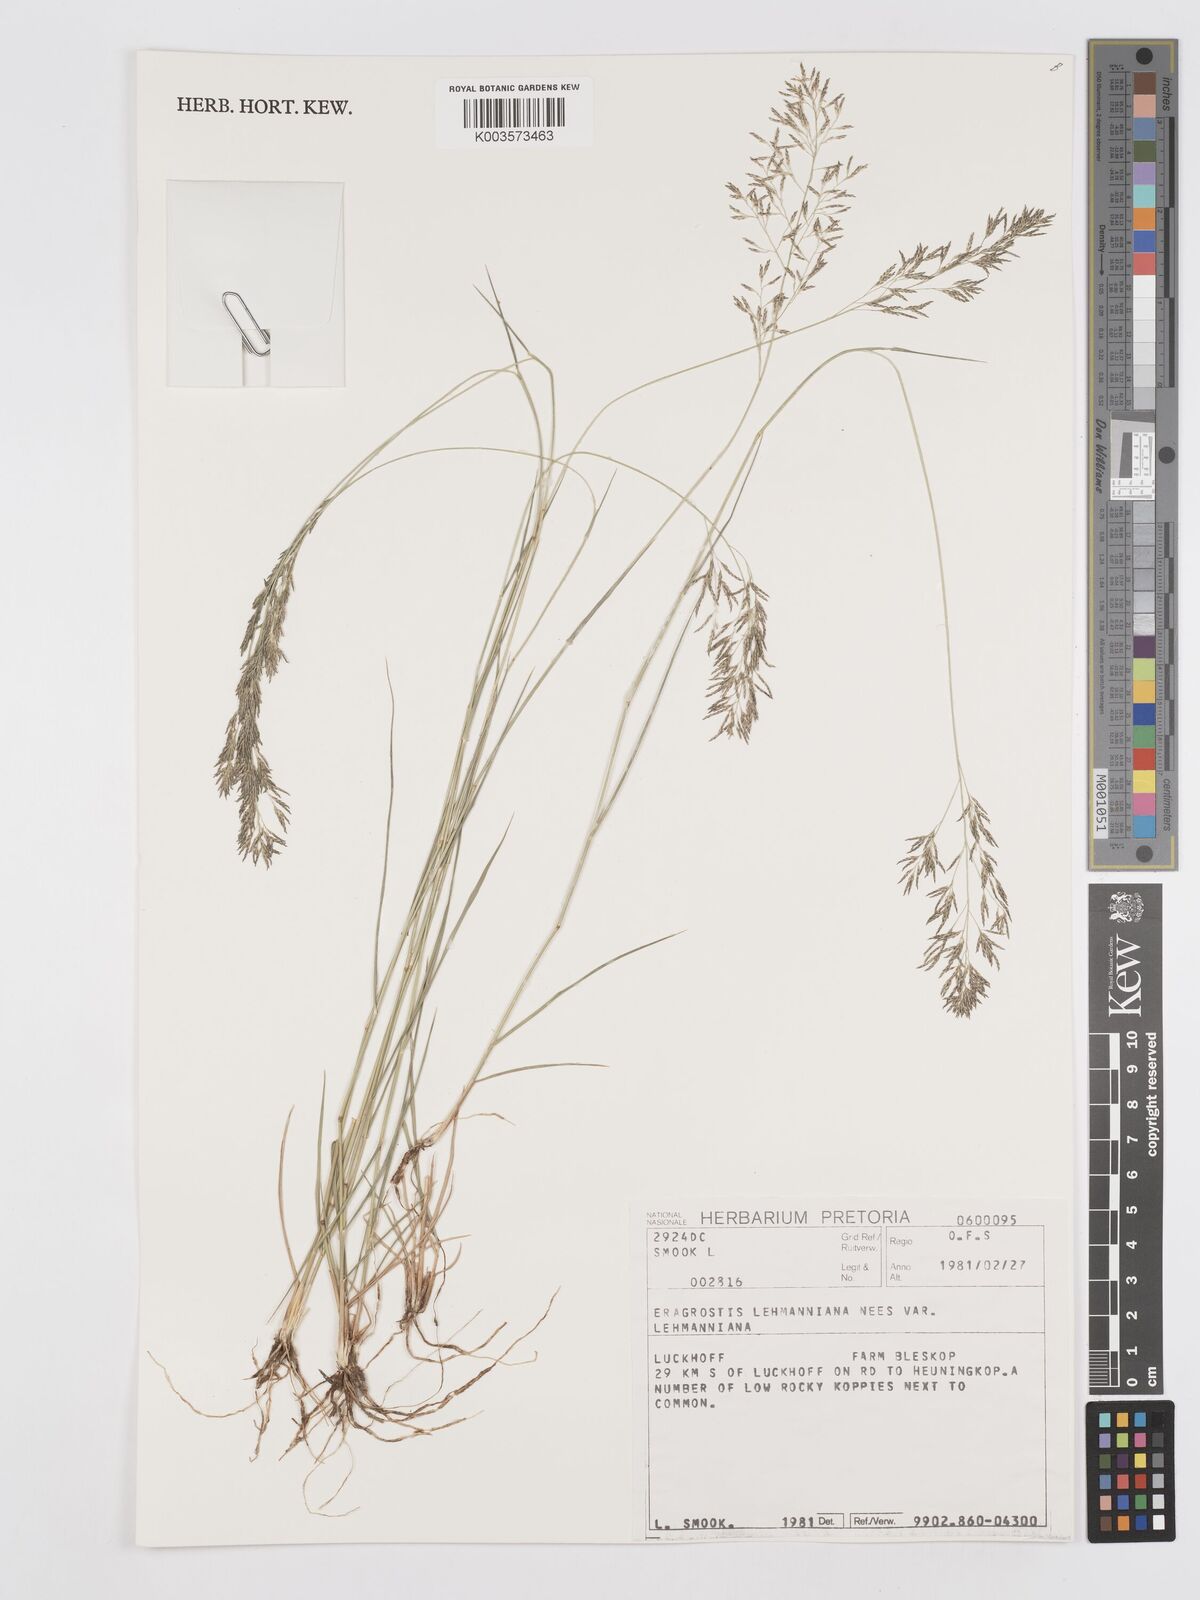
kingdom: Plantae
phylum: Tracheophyta
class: Liliopsida
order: Poales
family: Poaceae
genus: Eragrostis
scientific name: Eragrostis lehmanniana
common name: Lehmann lovegrass
